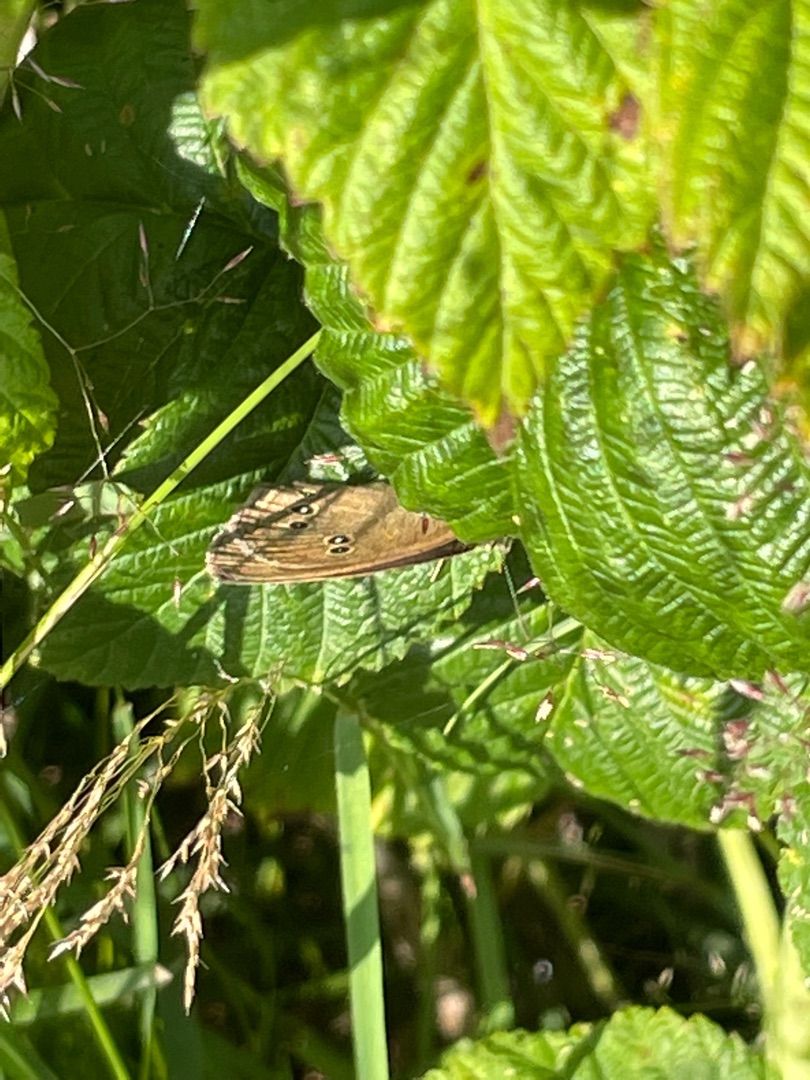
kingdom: Animalia
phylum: Arthropoda
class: Insecta
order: Lepidoptera
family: Nymphalidae
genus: Aphantopus
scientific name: Aphantopus hyperantus
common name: Engrandøje
